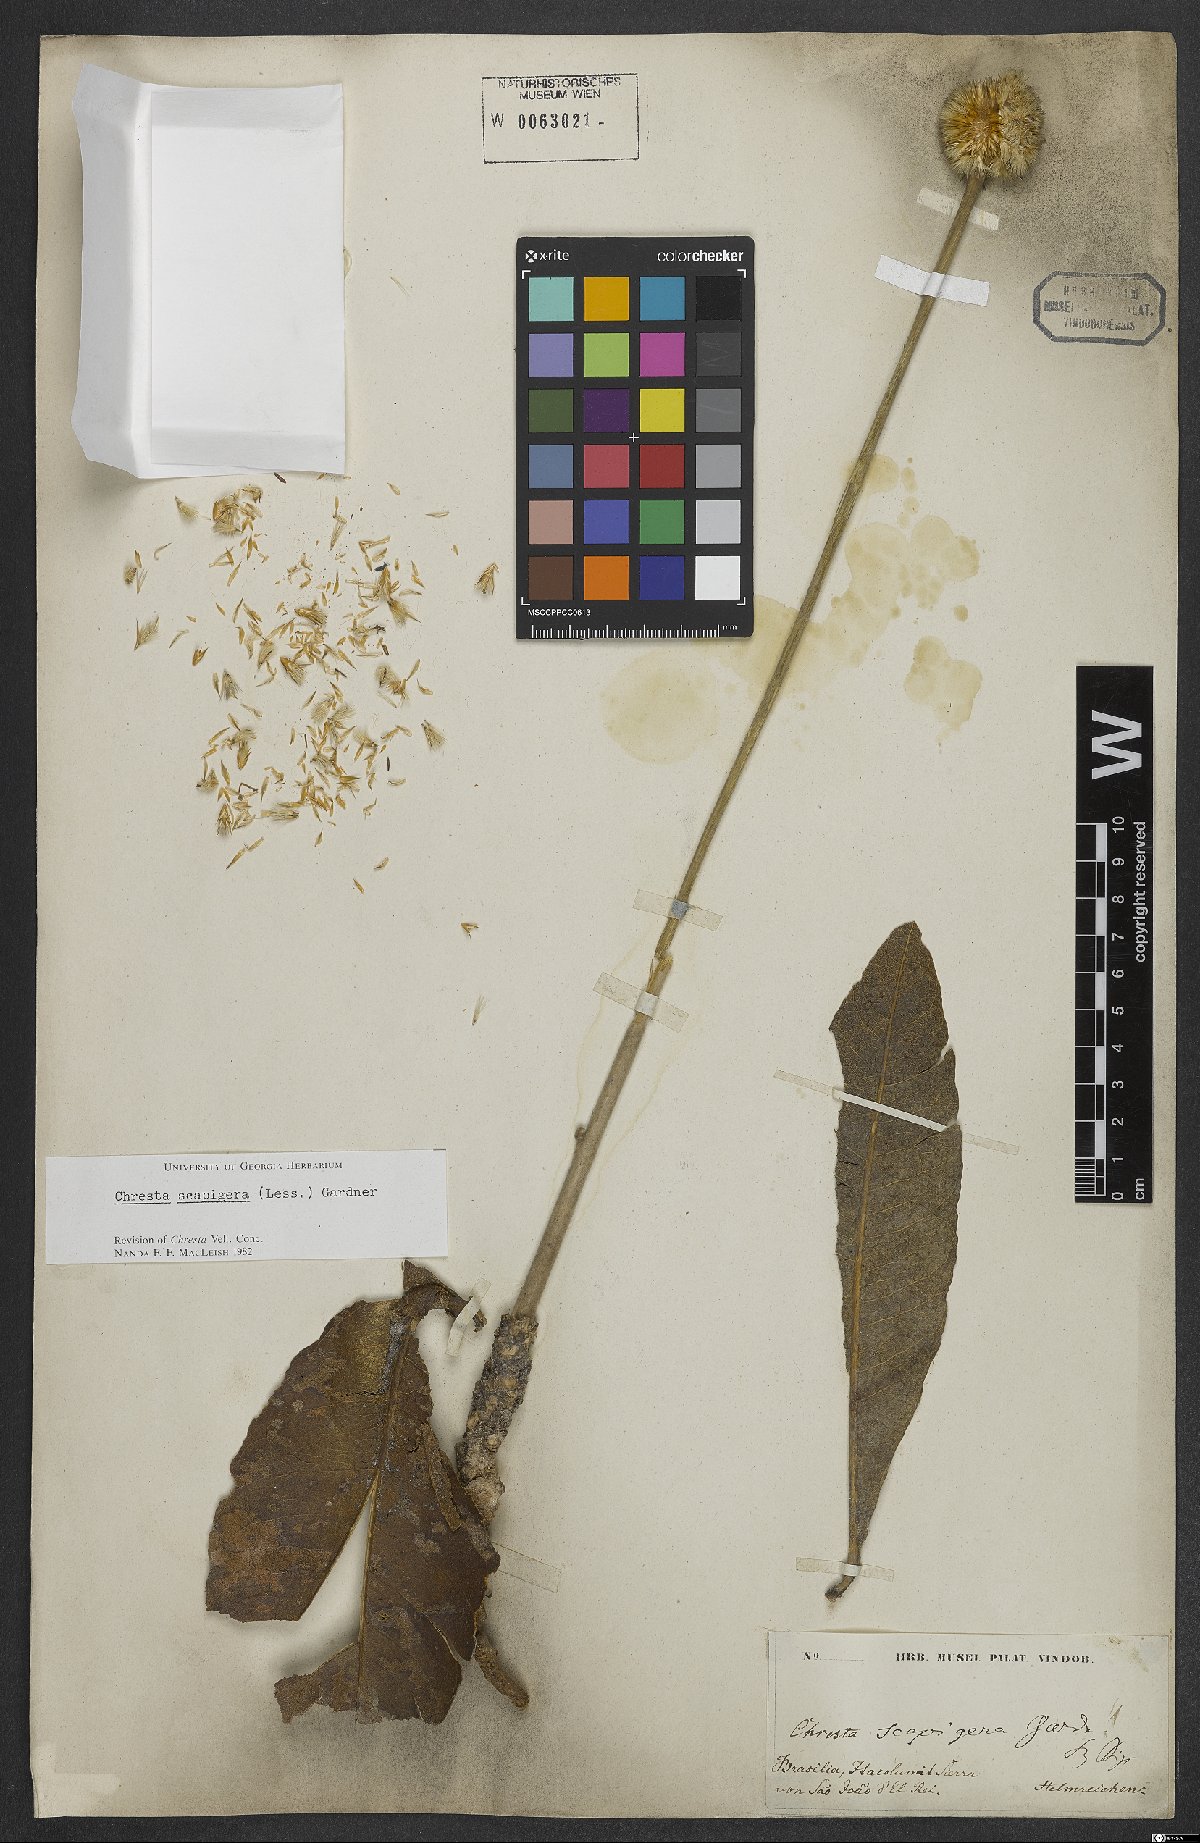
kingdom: Plantae
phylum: Tracheophyta
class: Magnoliopsida
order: Asterales
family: Asteraceae
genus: Chresta
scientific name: Chresta scapigera
